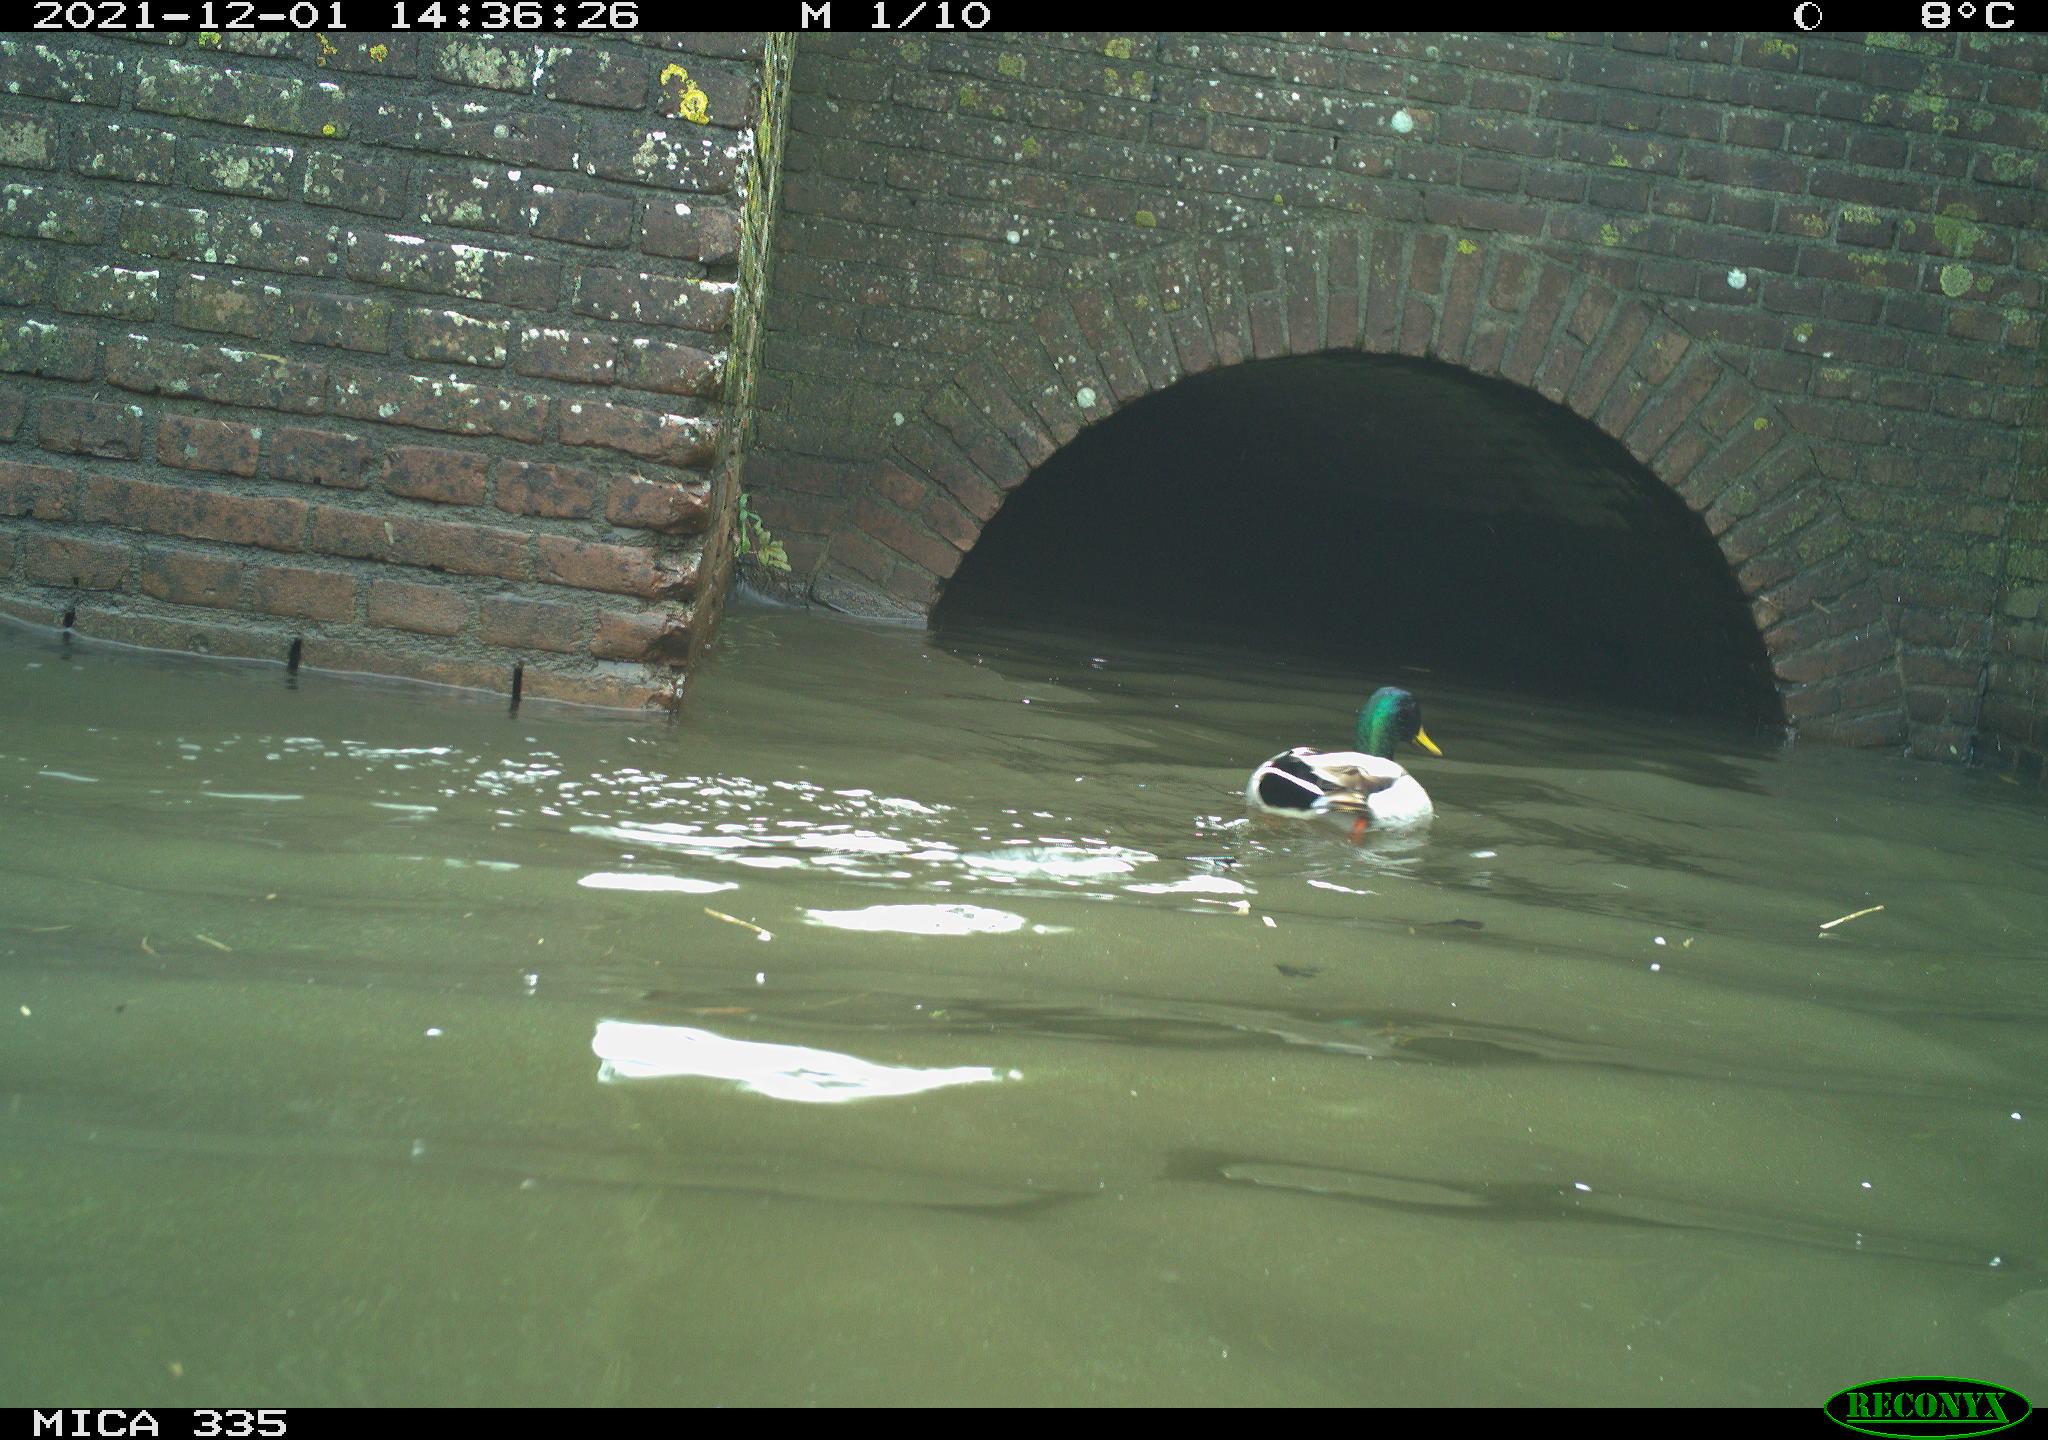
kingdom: Animalia
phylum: Chordata
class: Aves
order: Anseriformes
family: Anatidae
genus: Anas
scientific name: Anas platyrhynchos
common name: Mallard
